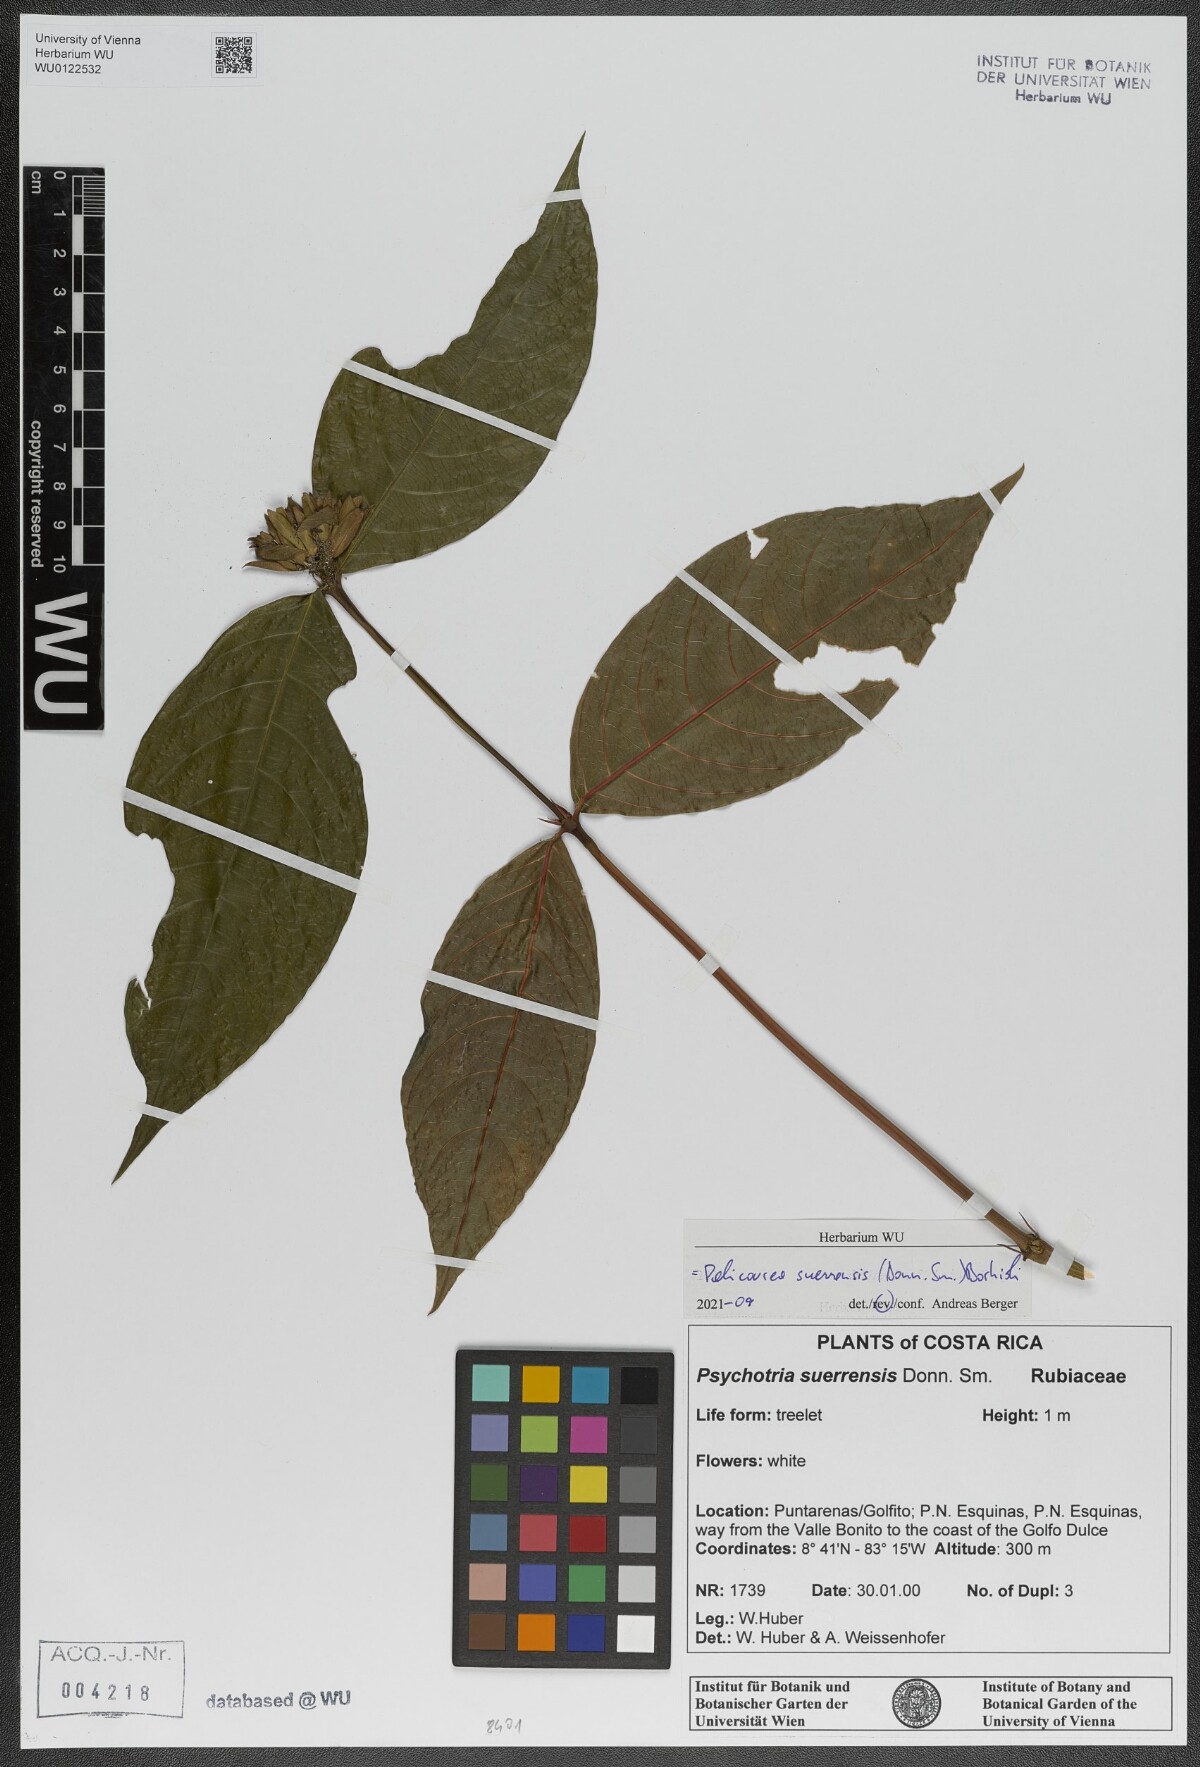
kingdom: Plantae
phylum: Tracheophyta
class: Magnoliopsida
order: Gentianales
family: Rubiaceae
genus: Palicourea
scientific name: Palicourea suerrensis
